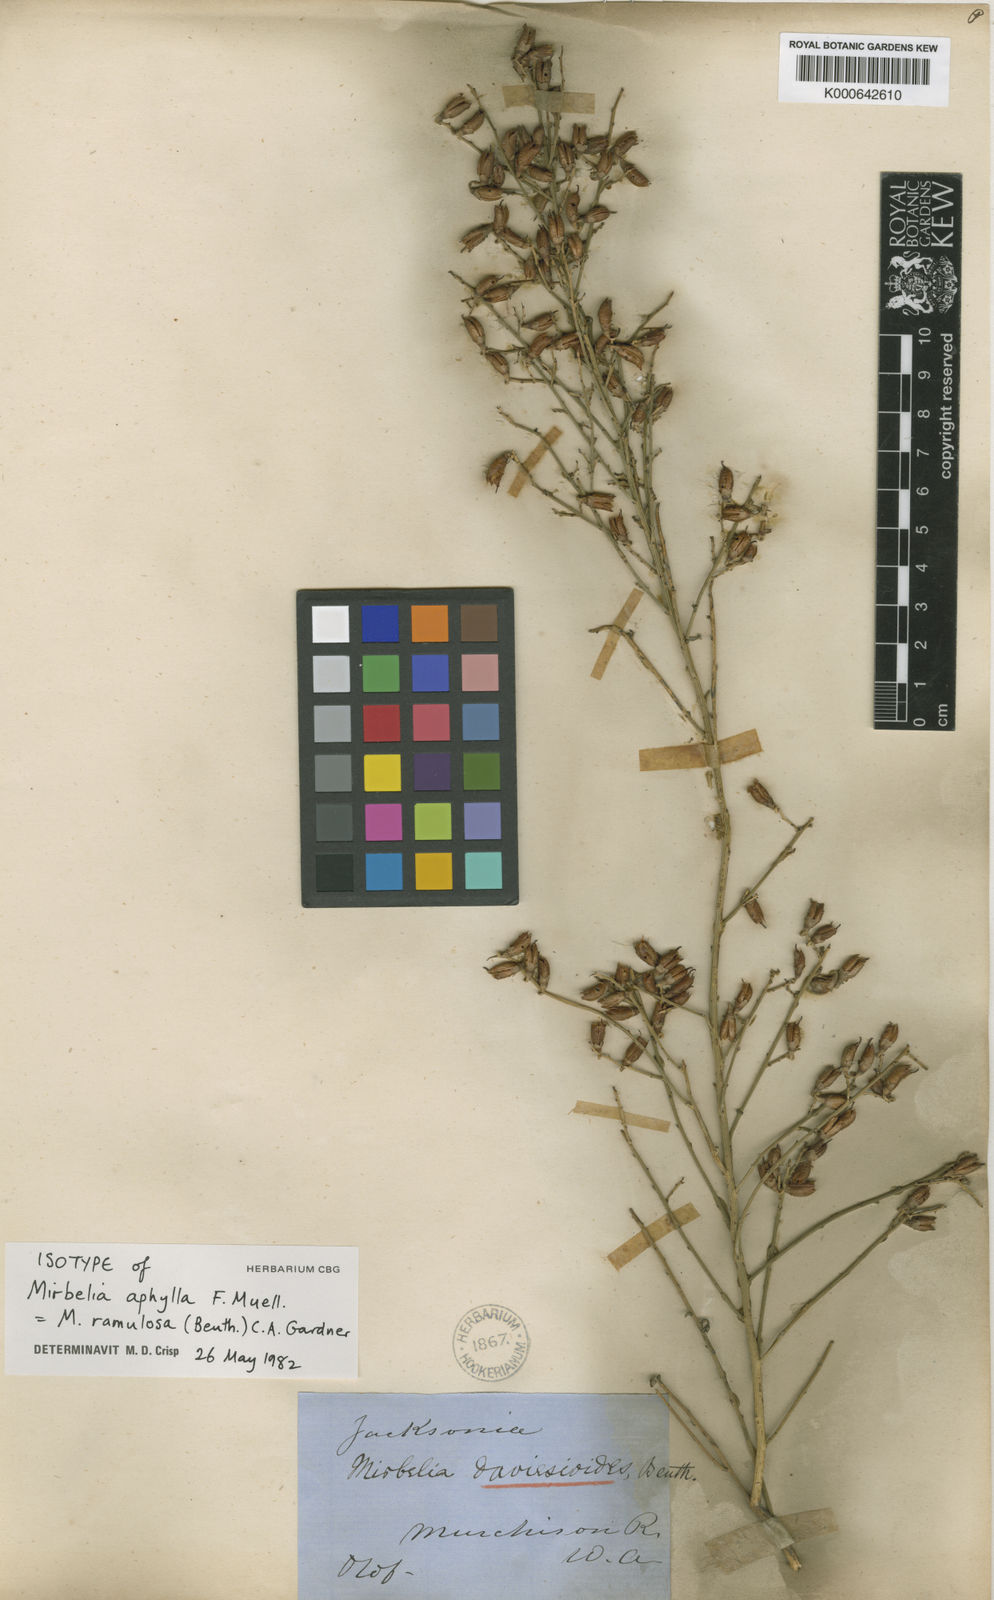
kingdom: Plantae
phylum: Tracheophyta
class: Magnoliopsida
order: Fabales
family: Fabaceae
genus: Mirbelia
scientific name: Mirbelia ramulosa
